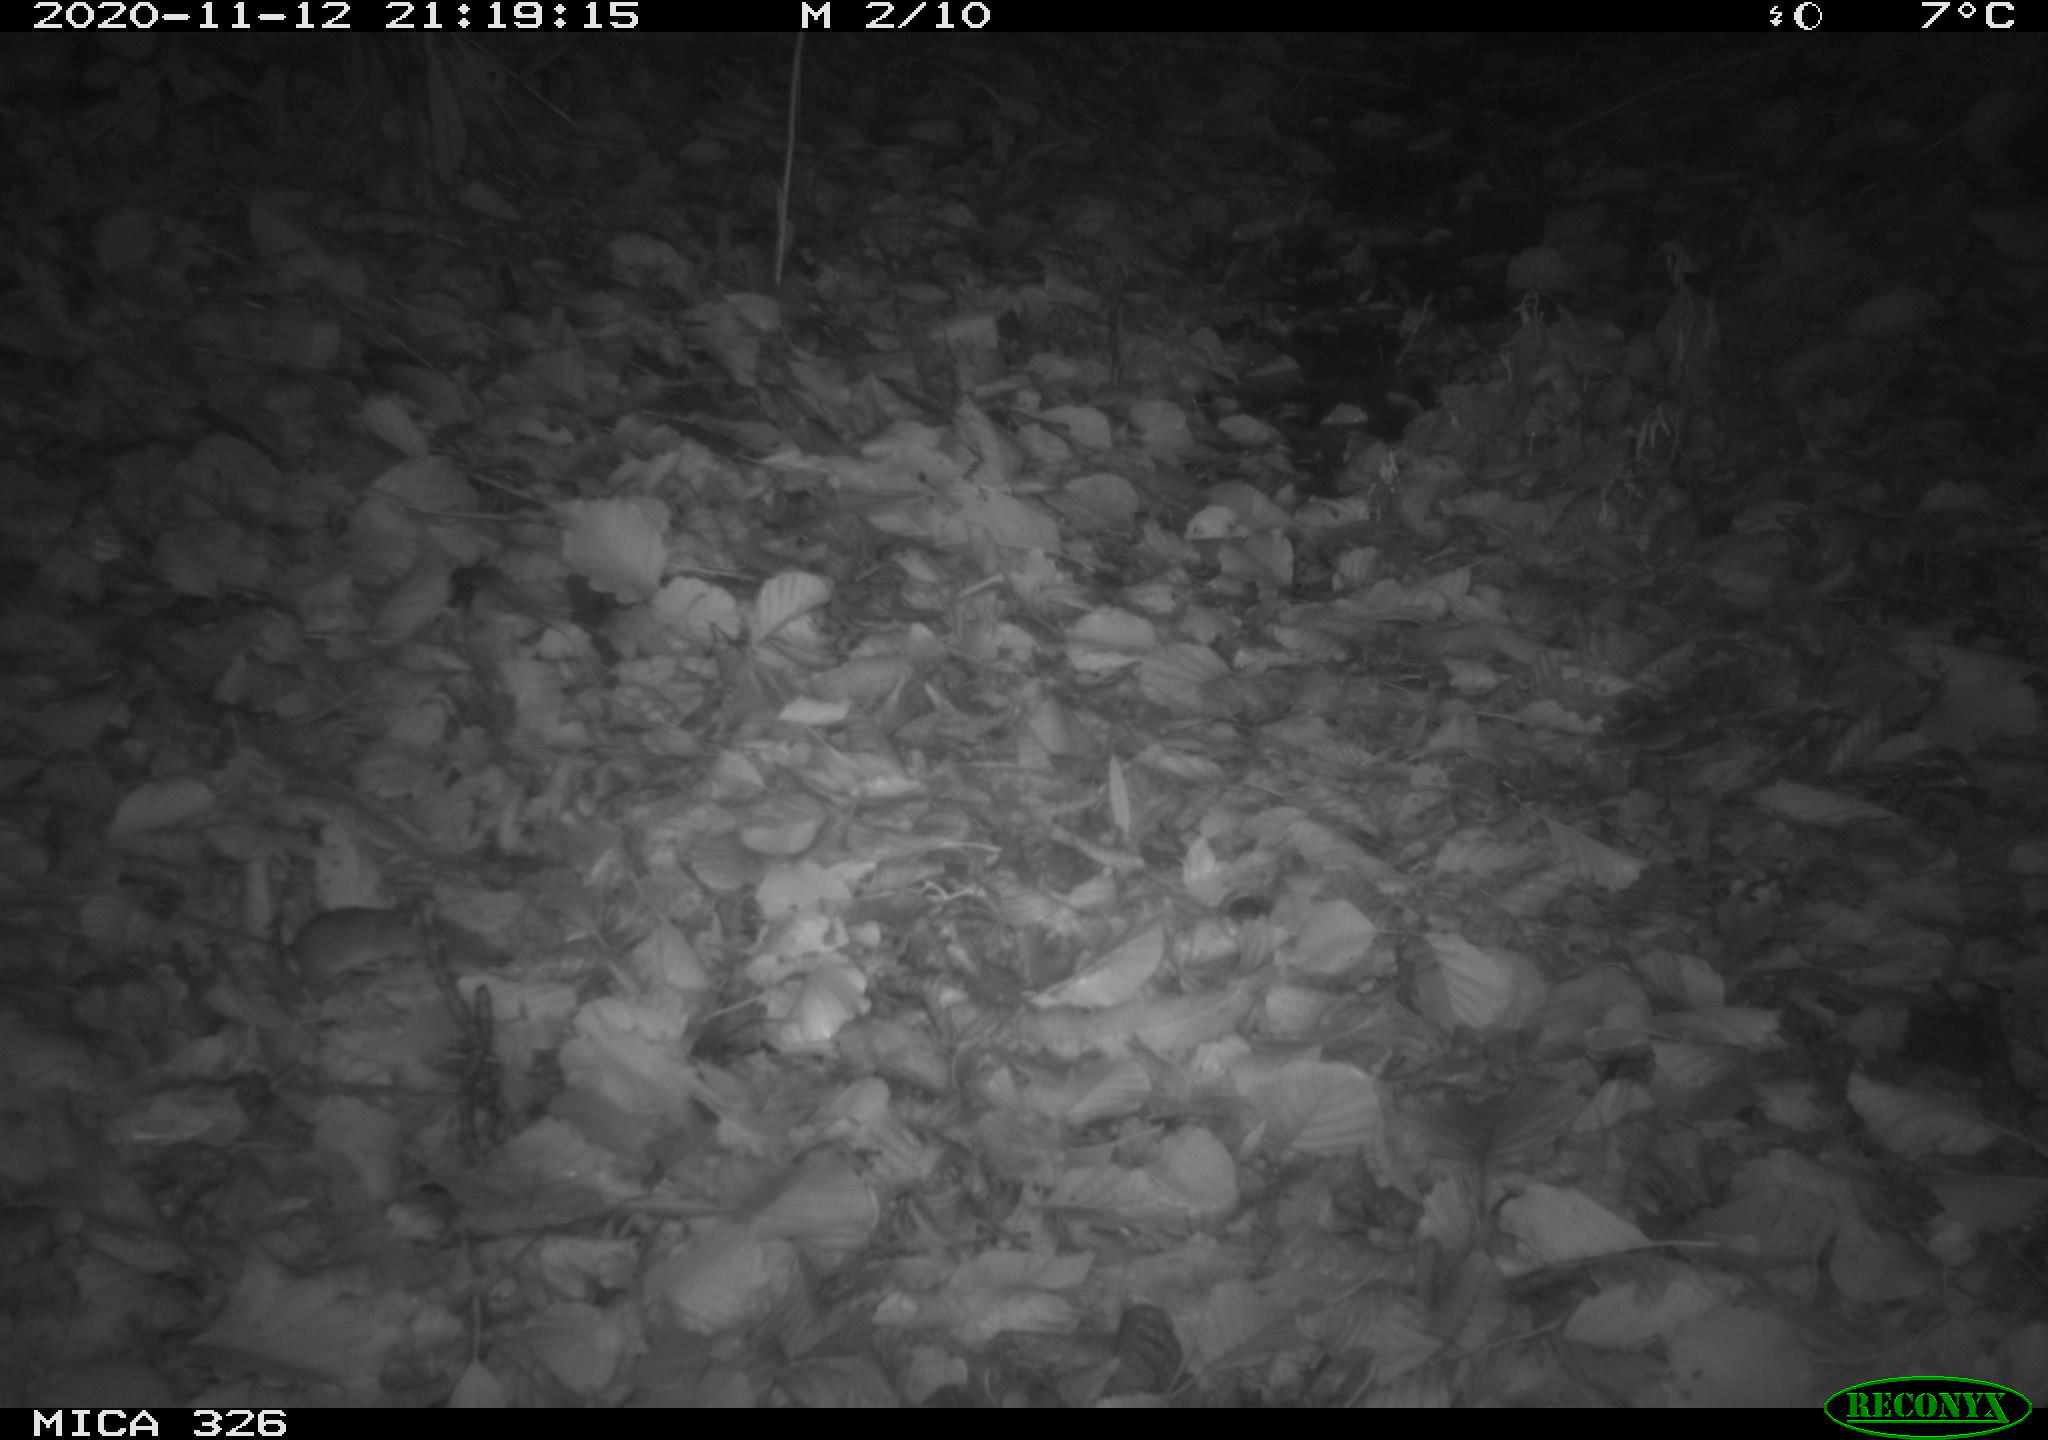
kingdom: Animalia
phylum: Chordata
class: Mammalia
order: Rodentia
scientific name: Rodentia
